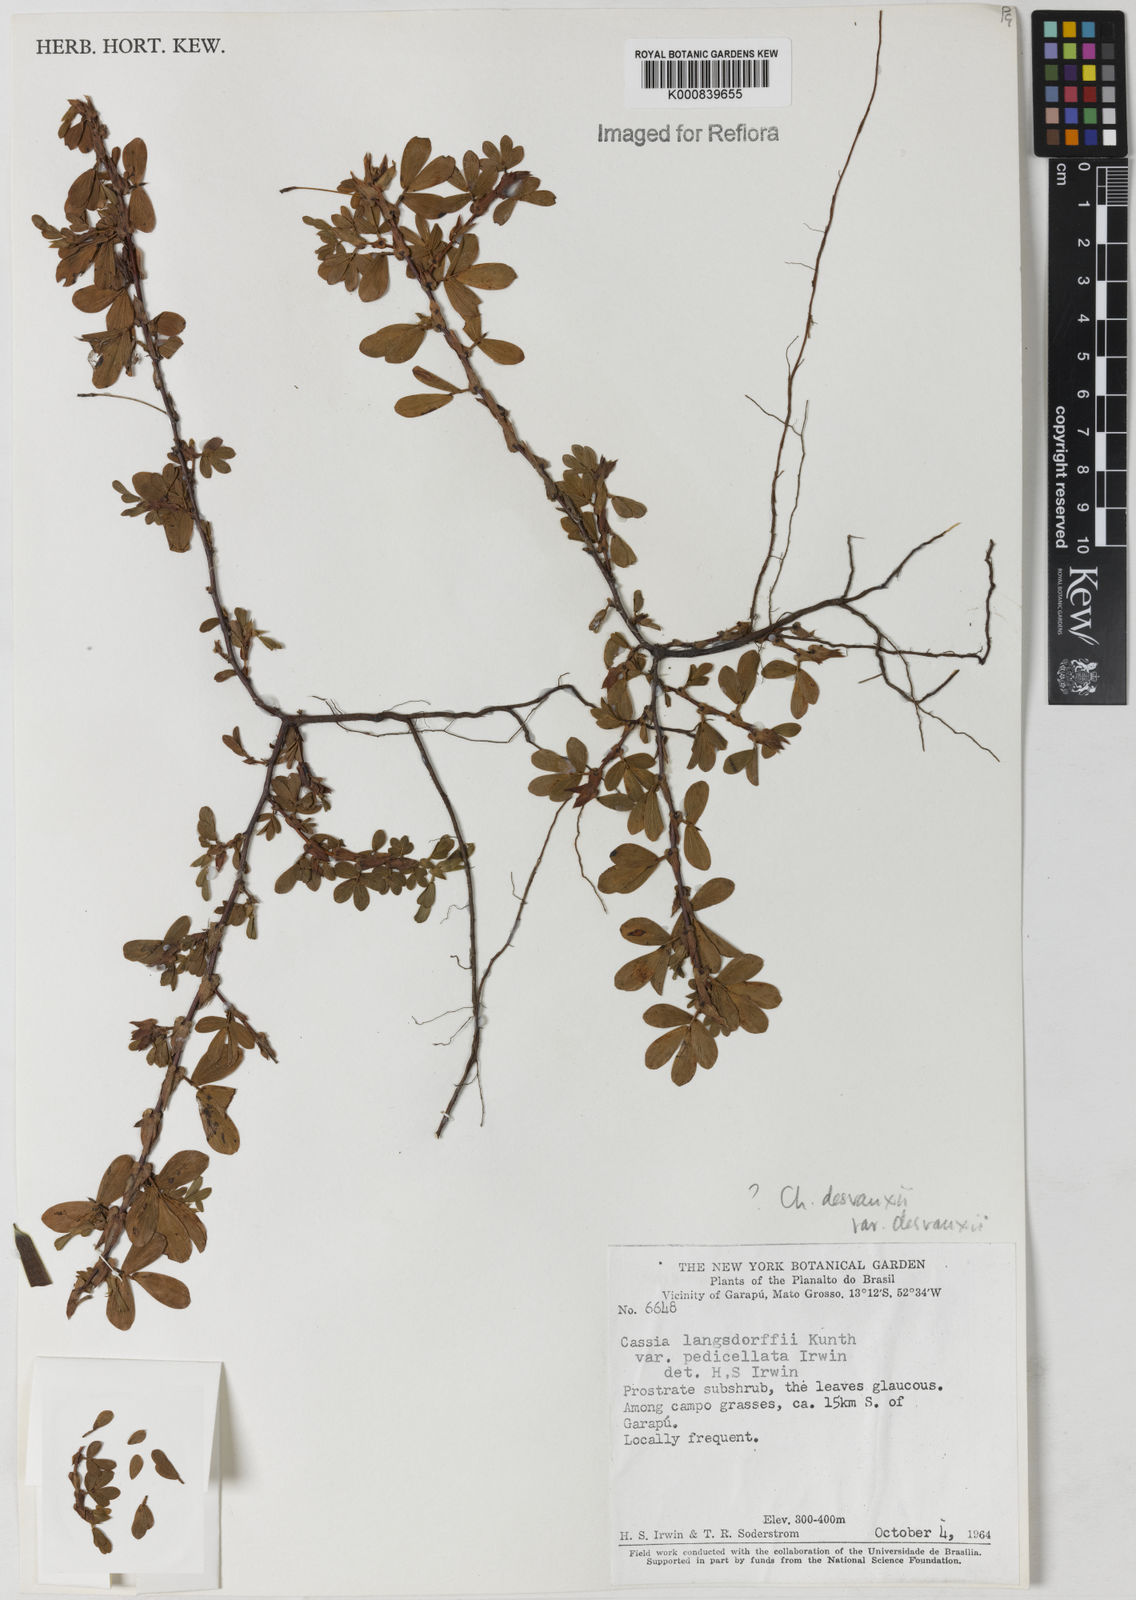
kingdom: Plantae
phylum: Tracheophyta
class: Magnoliopsida
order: Fabales
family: Fabaceae
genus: Chamaecrista
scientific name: Chamaecrista desvauxii
